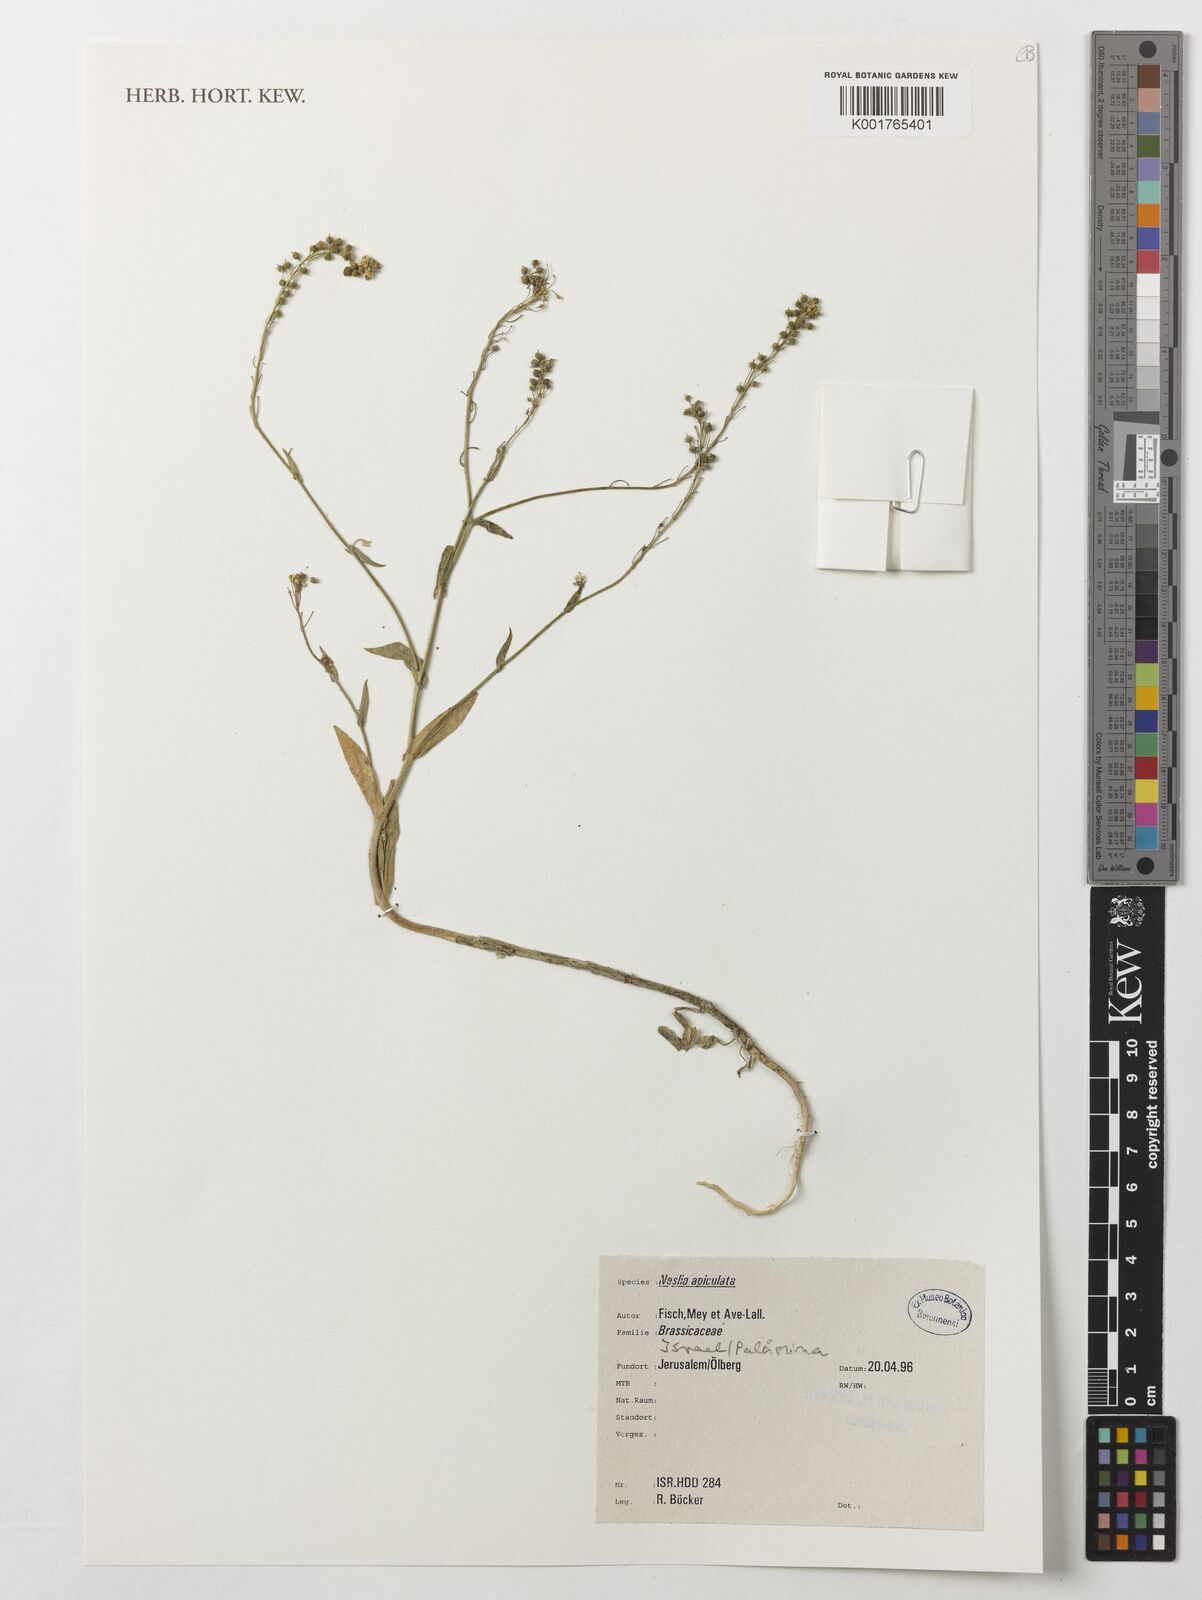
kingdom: Plantae
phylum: Tracheophyta
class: Magnoliopsida
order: Brassicales
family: Brassicaceae
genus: Neslia
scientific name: Neslia paniculata
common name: Ball mustard
